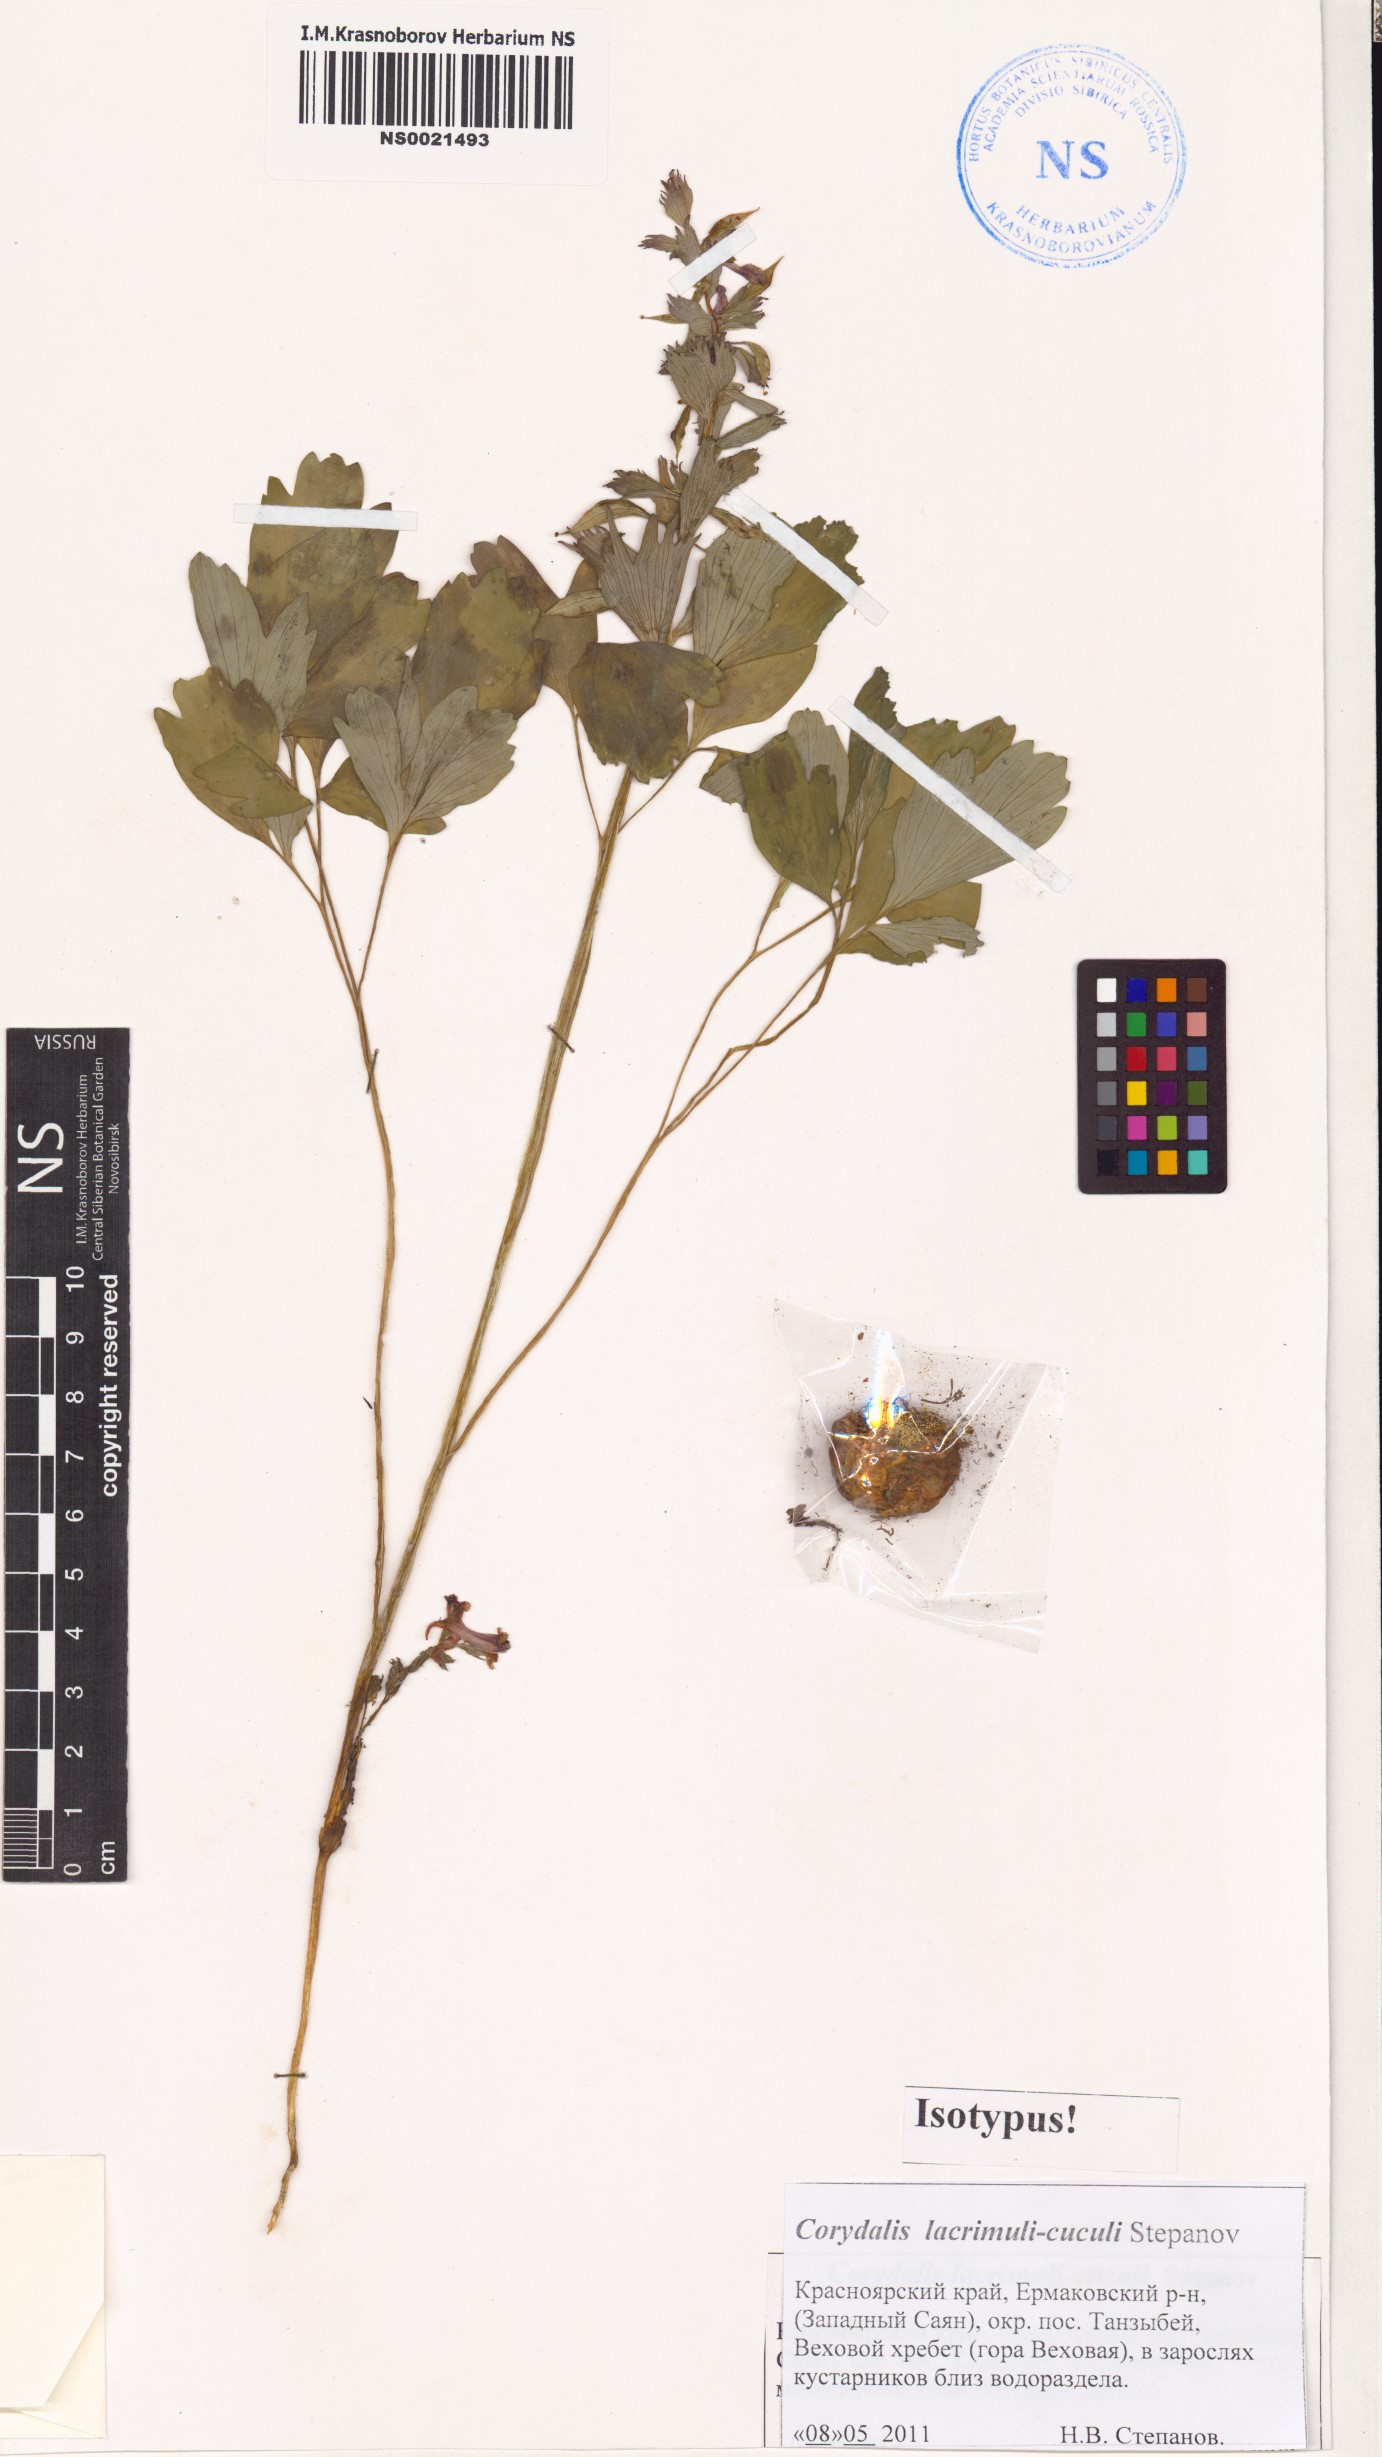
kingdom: Plantae
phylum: Tracheophyta
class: Magnoliopsida
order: Ranunculales
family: Papaveraceae
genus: Corydalis
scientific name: Corydalis lacrimuli-cuculi
